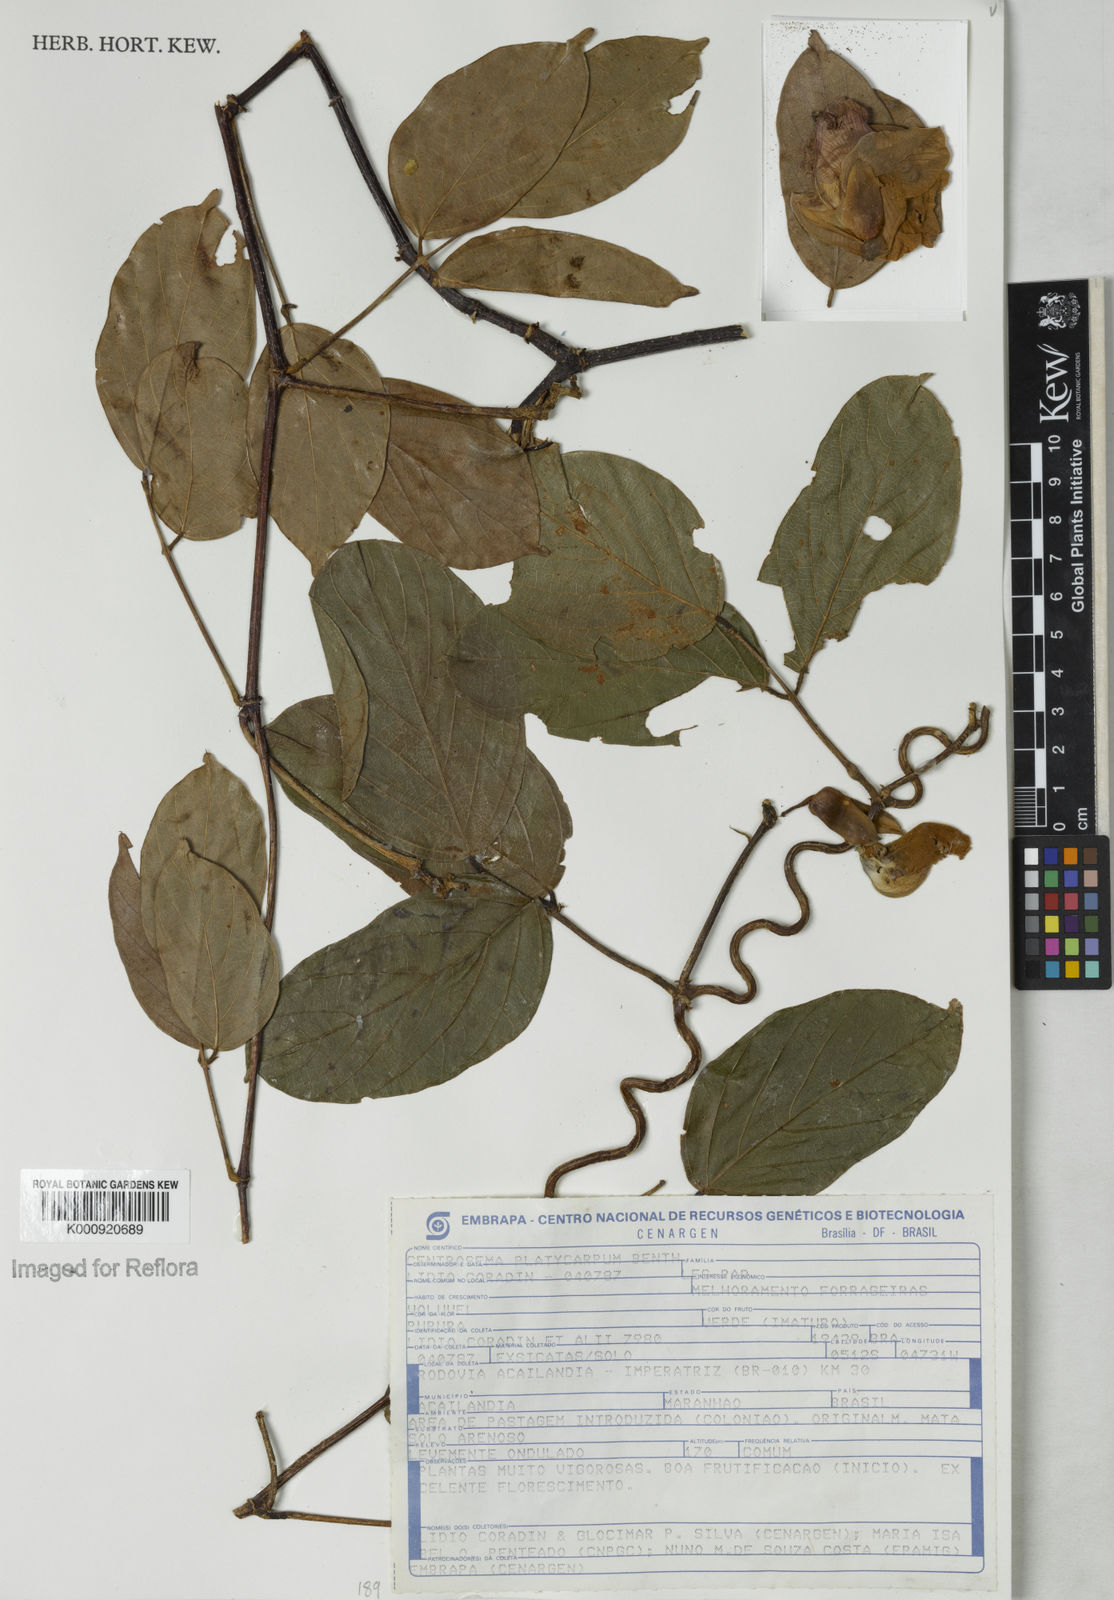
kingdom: Plantae
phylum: Tracheophyta
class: Magnoliopsida
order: Fabales
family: Fabaceae
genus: Centrosema
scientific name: Centrosema platycarpum
